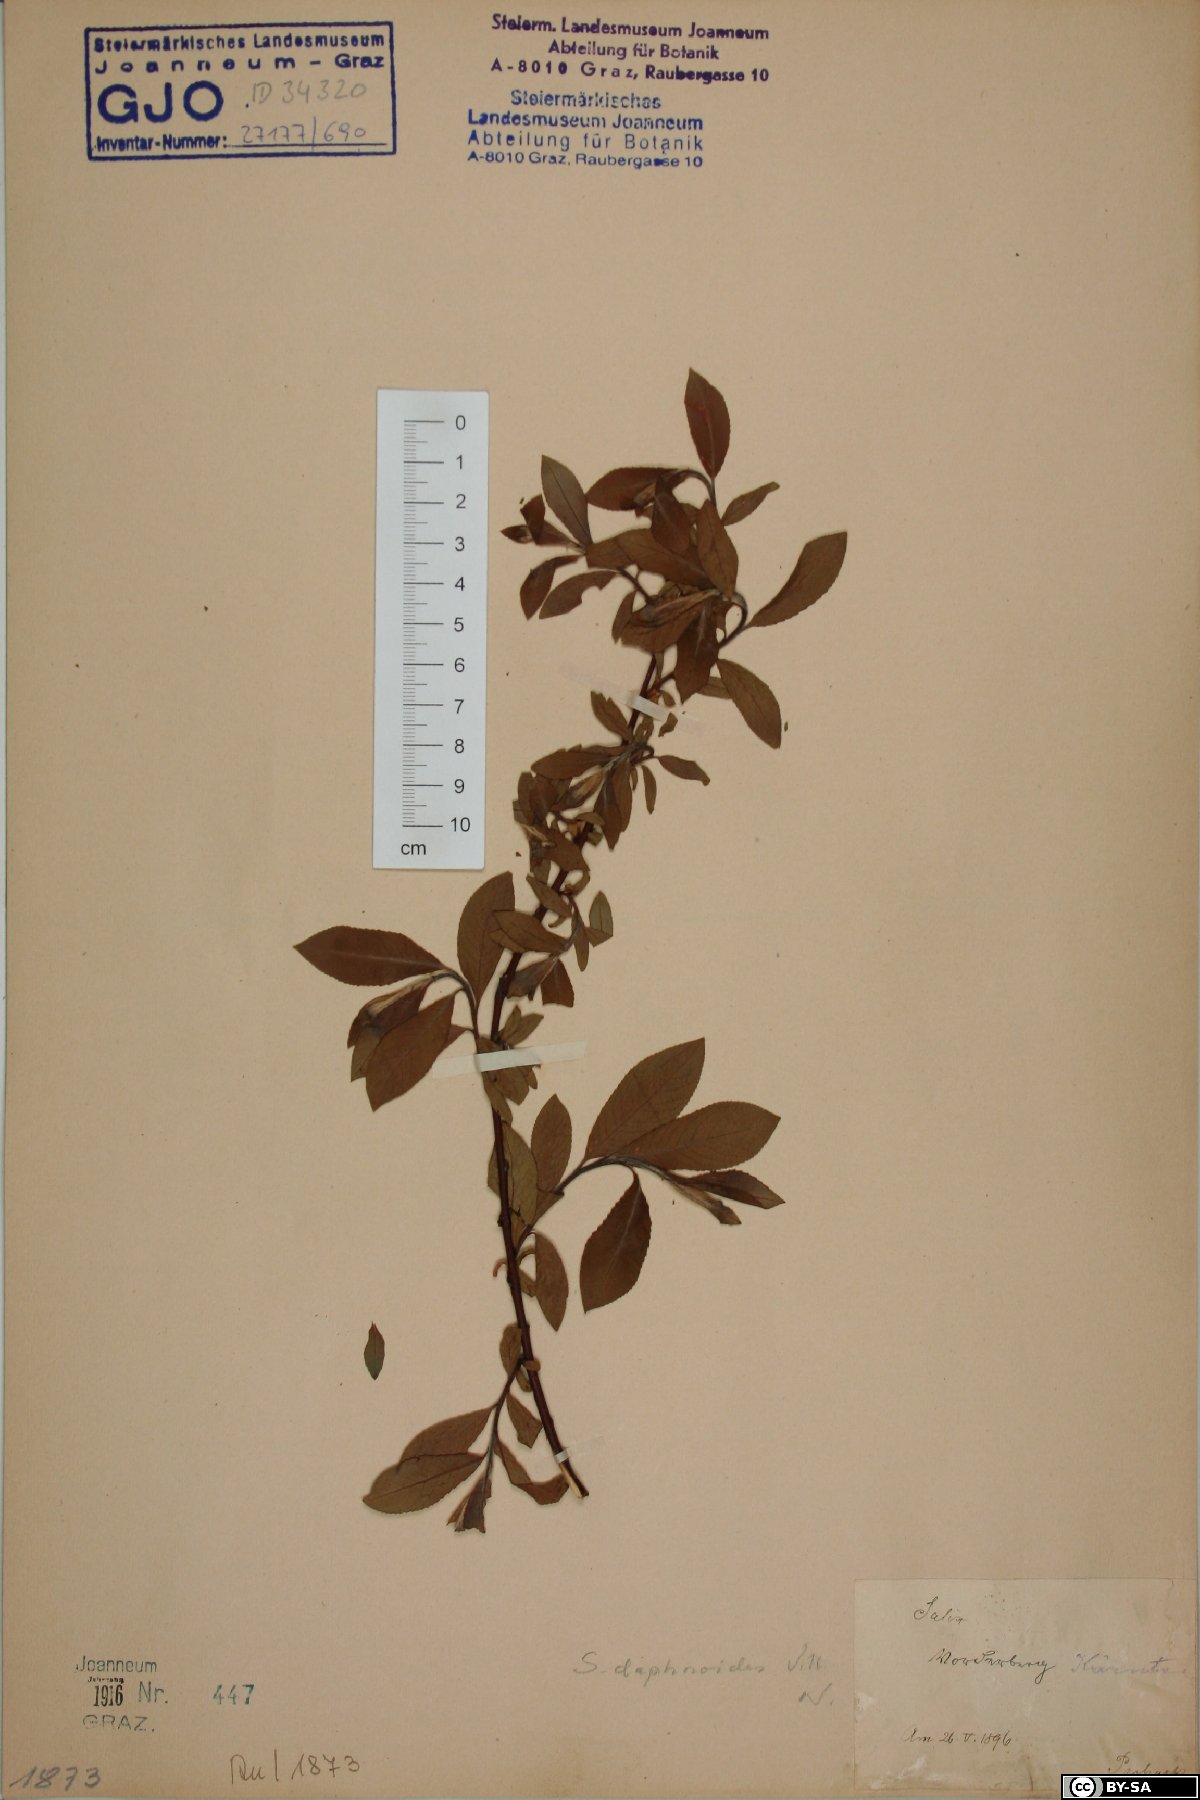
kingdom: Plantae
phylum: Tracheophyta
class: Magnoliopsida
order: Malpighiales
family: Salicaceae
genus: Salix
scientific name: Salix daphnoides
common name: European violet-willow
